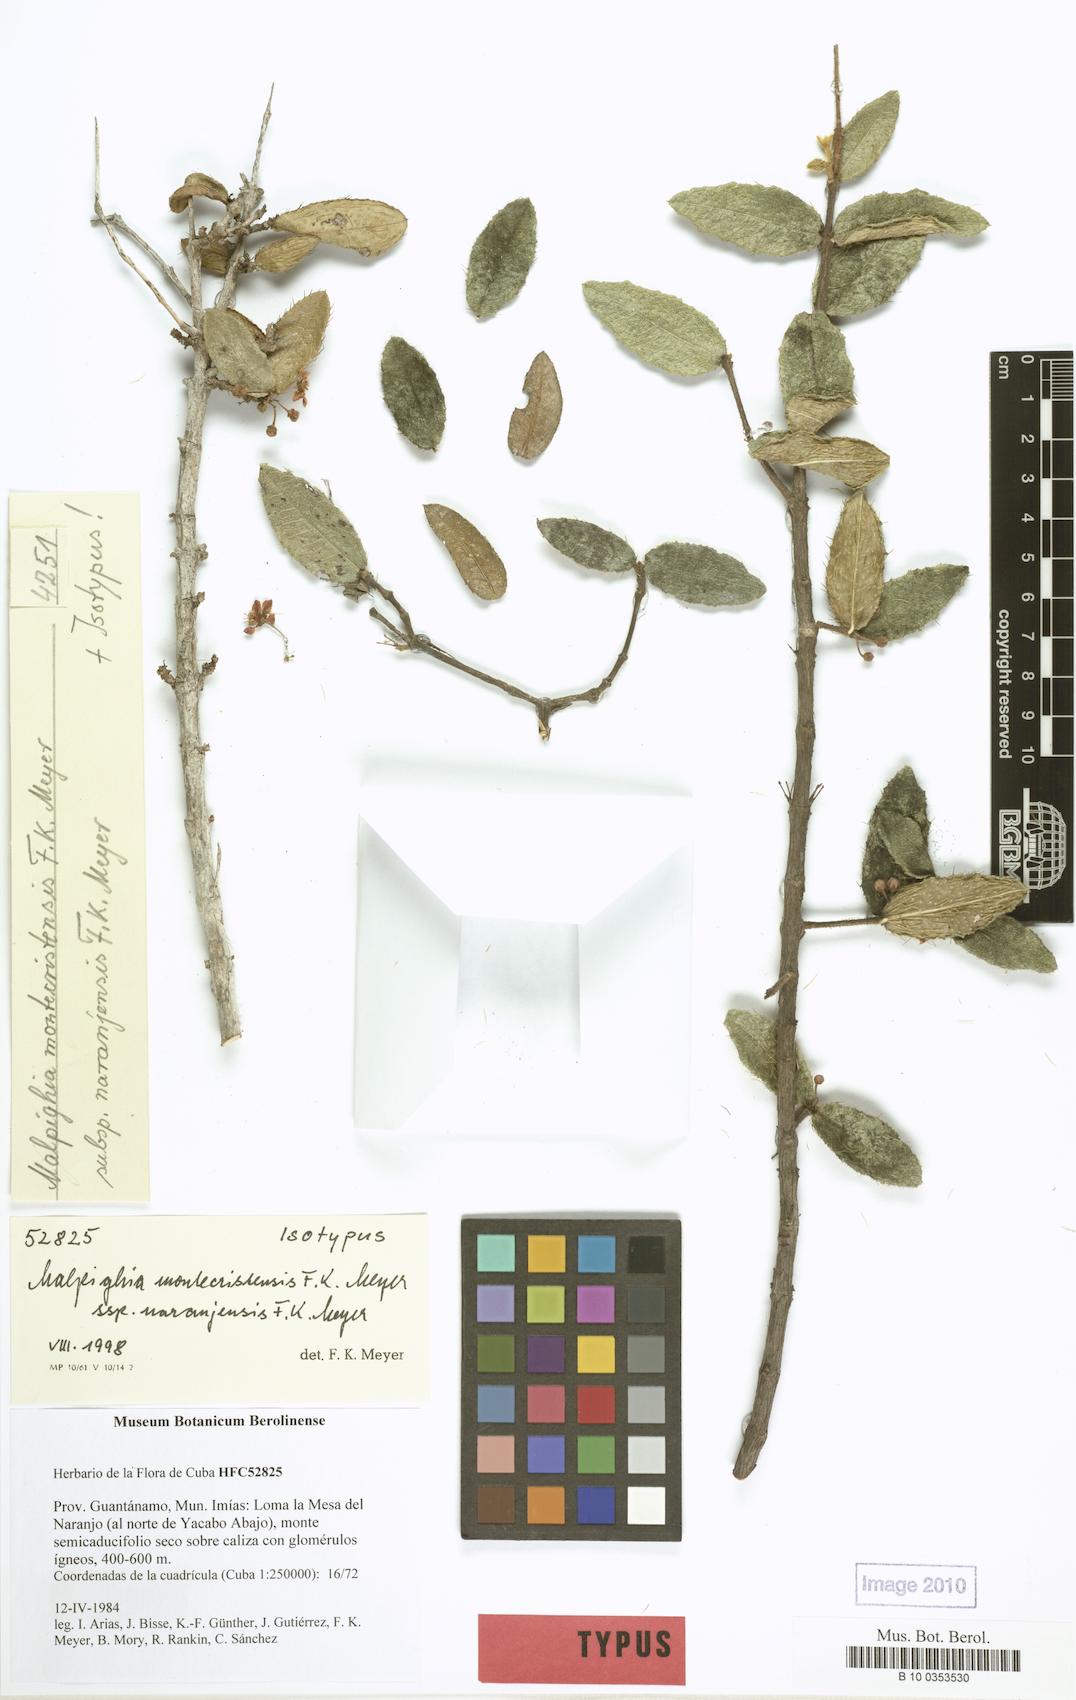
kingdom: Plantae
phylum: Tracheophyta
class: Magnoliopsida
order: Malpighiales
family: Malpighiaceae
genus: Malpighia
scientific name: Malpighia cnide
